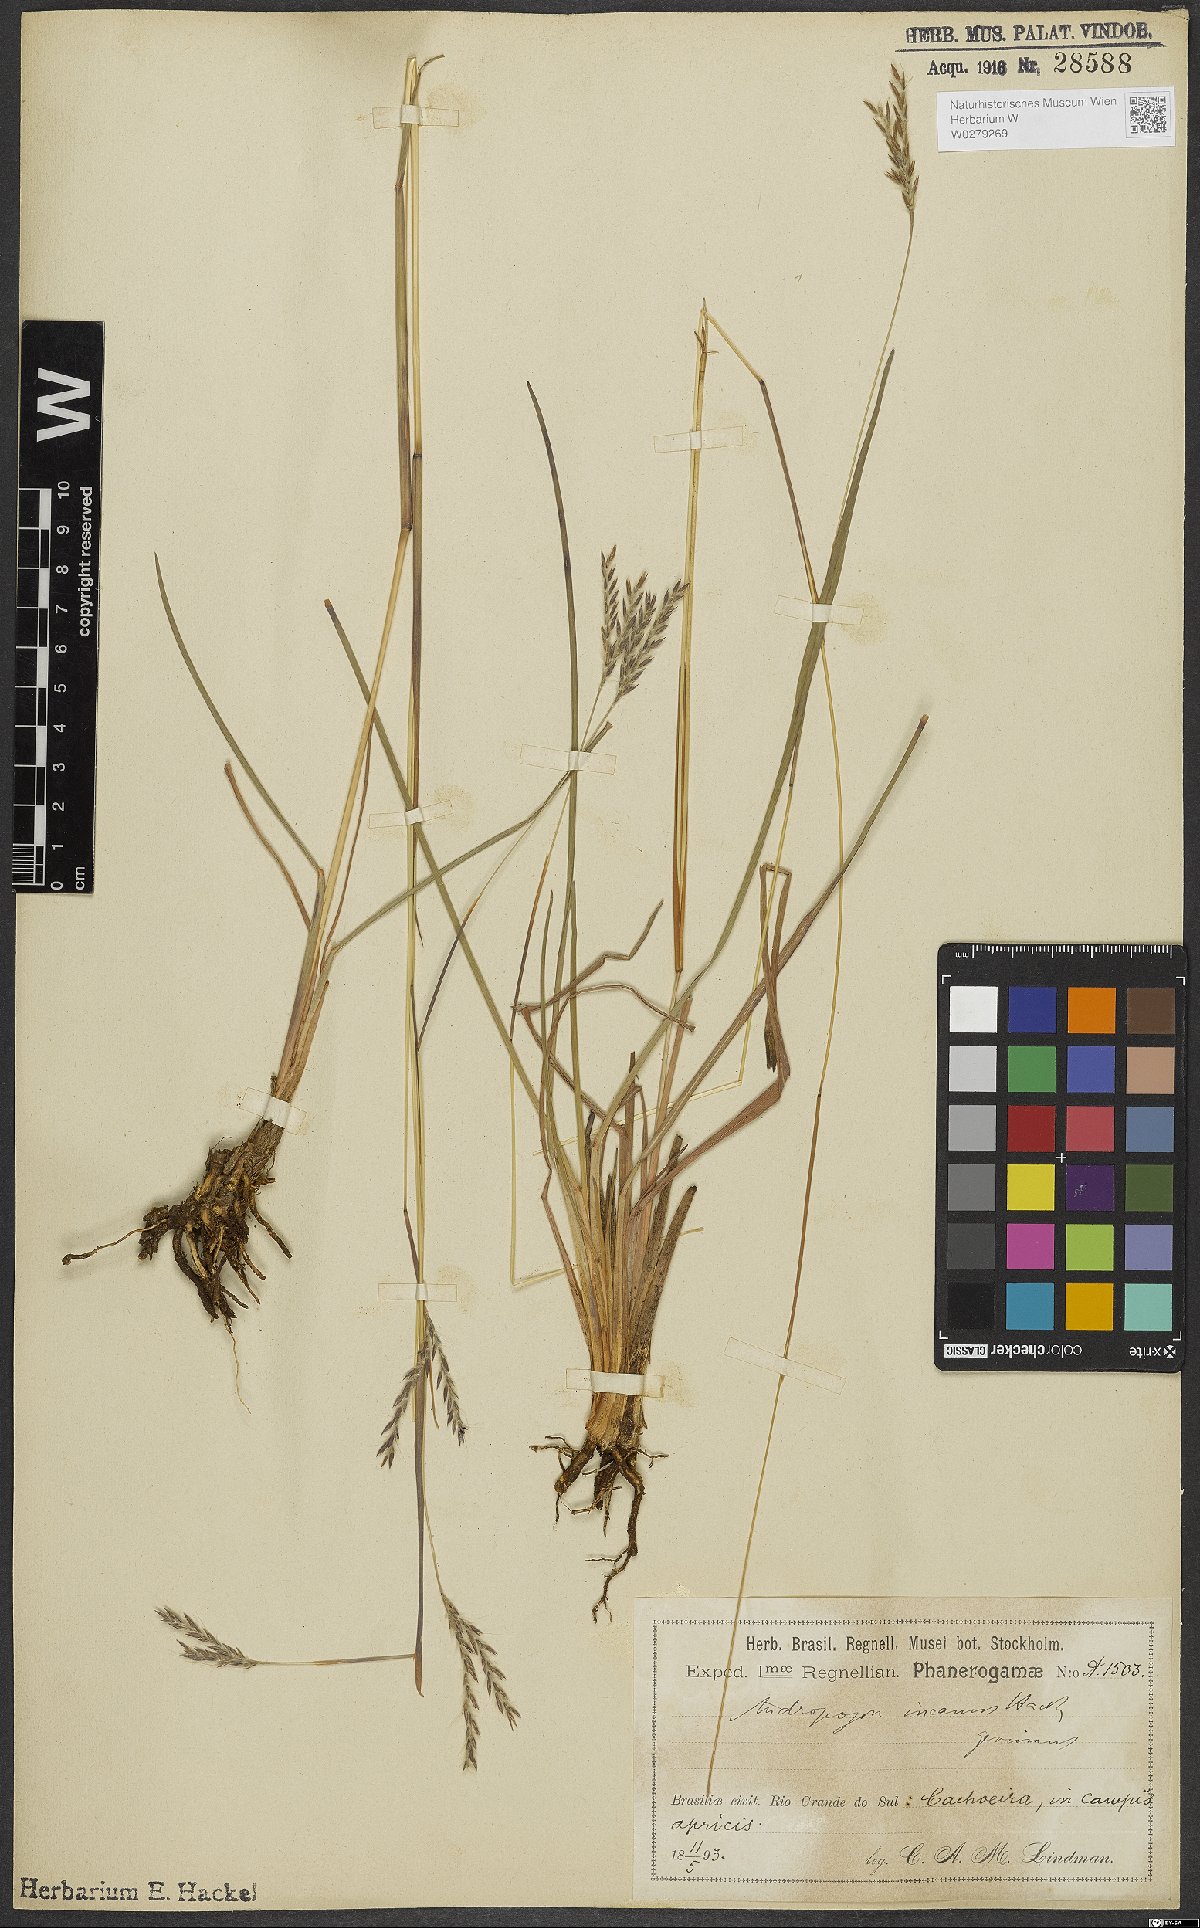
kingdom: Plantae
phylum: Tracheophyta
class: Liliopsida
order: Poales
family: Poaceae
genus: Andropogon
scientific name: Andropogon lateralis
